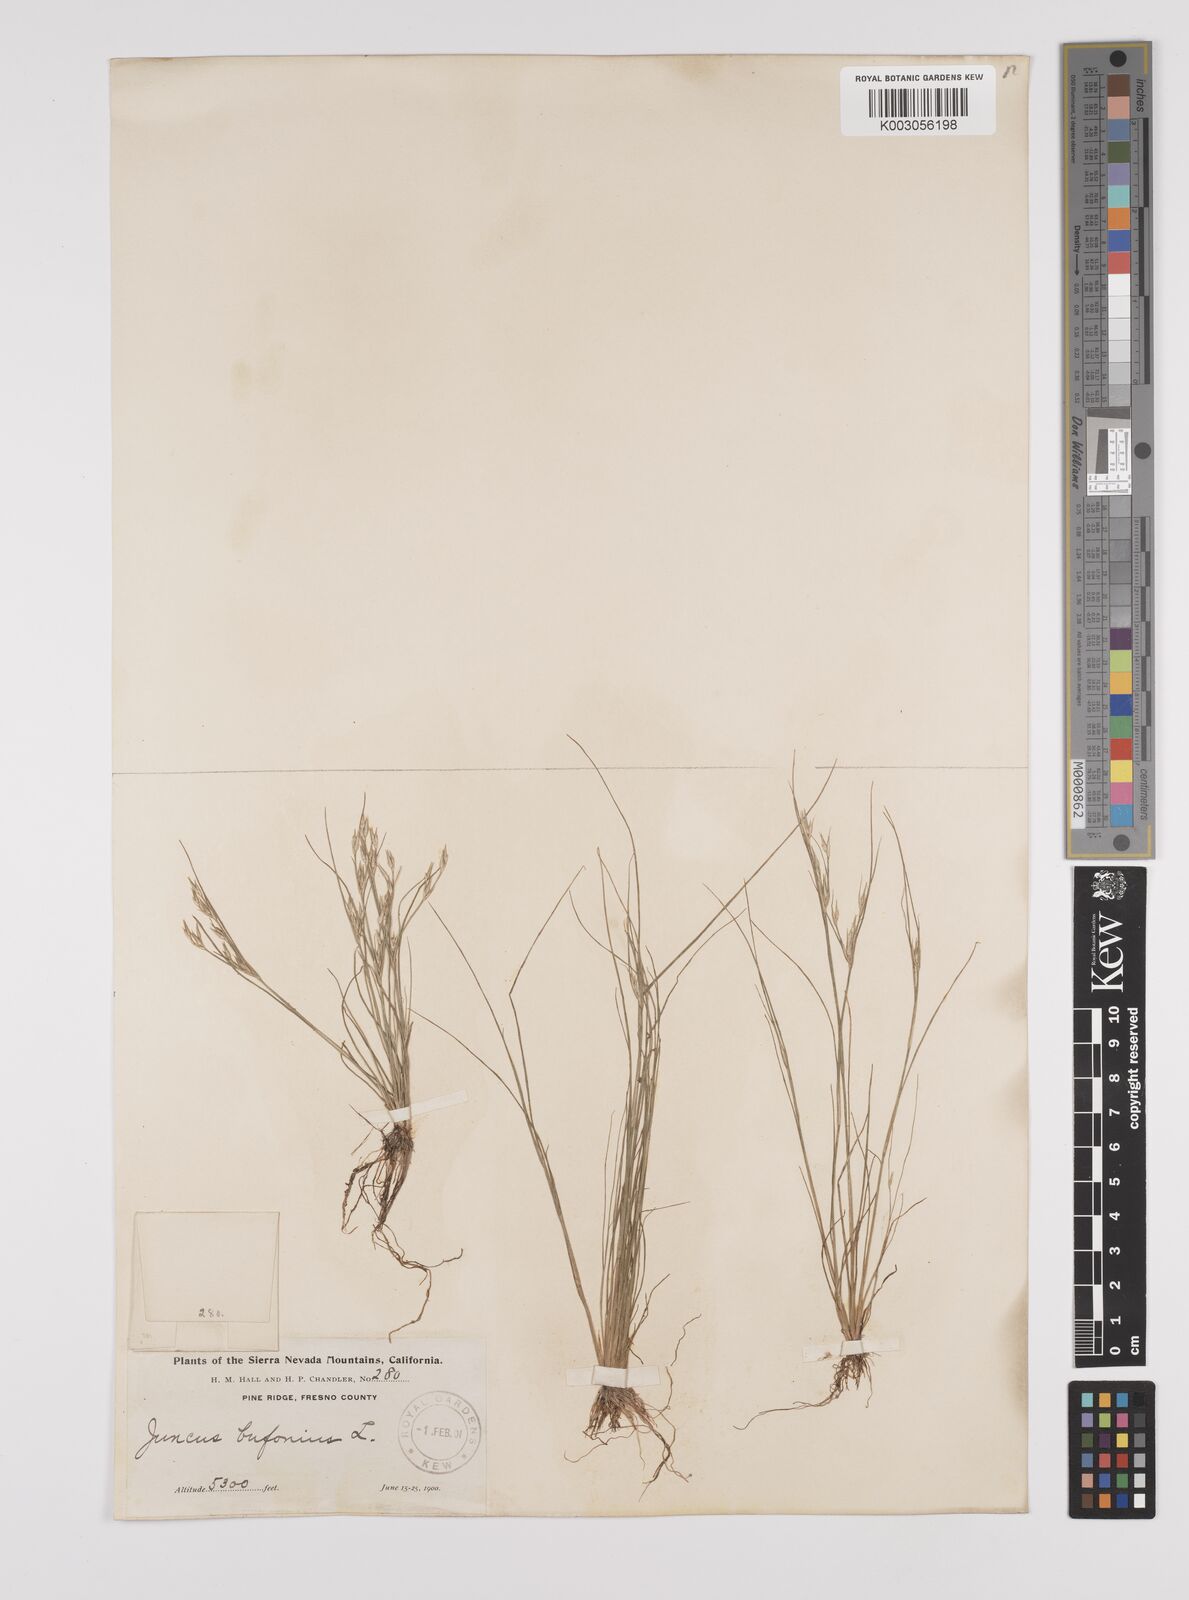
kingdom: Plantae
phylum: Tracheophyta
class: Liliopsida
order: Poales
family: Juncaceae
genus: Juncus
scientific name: Juncus bufonius
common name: Toad rush
